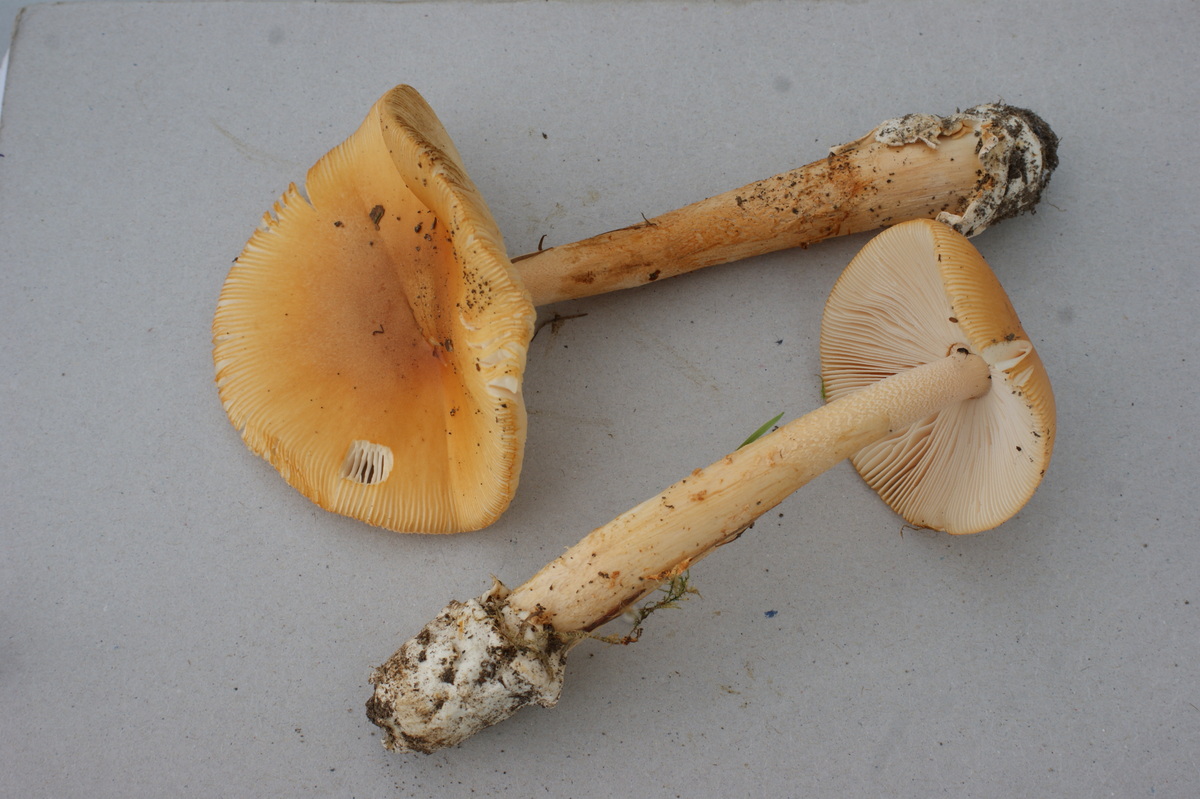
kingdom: Fungi
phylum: Basidiomycota
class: Agaricomycetes
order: Agaricales
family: Amanitaceae
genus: Amanita
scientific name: Amanita crocea
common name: gylden kam-fluesvamp
